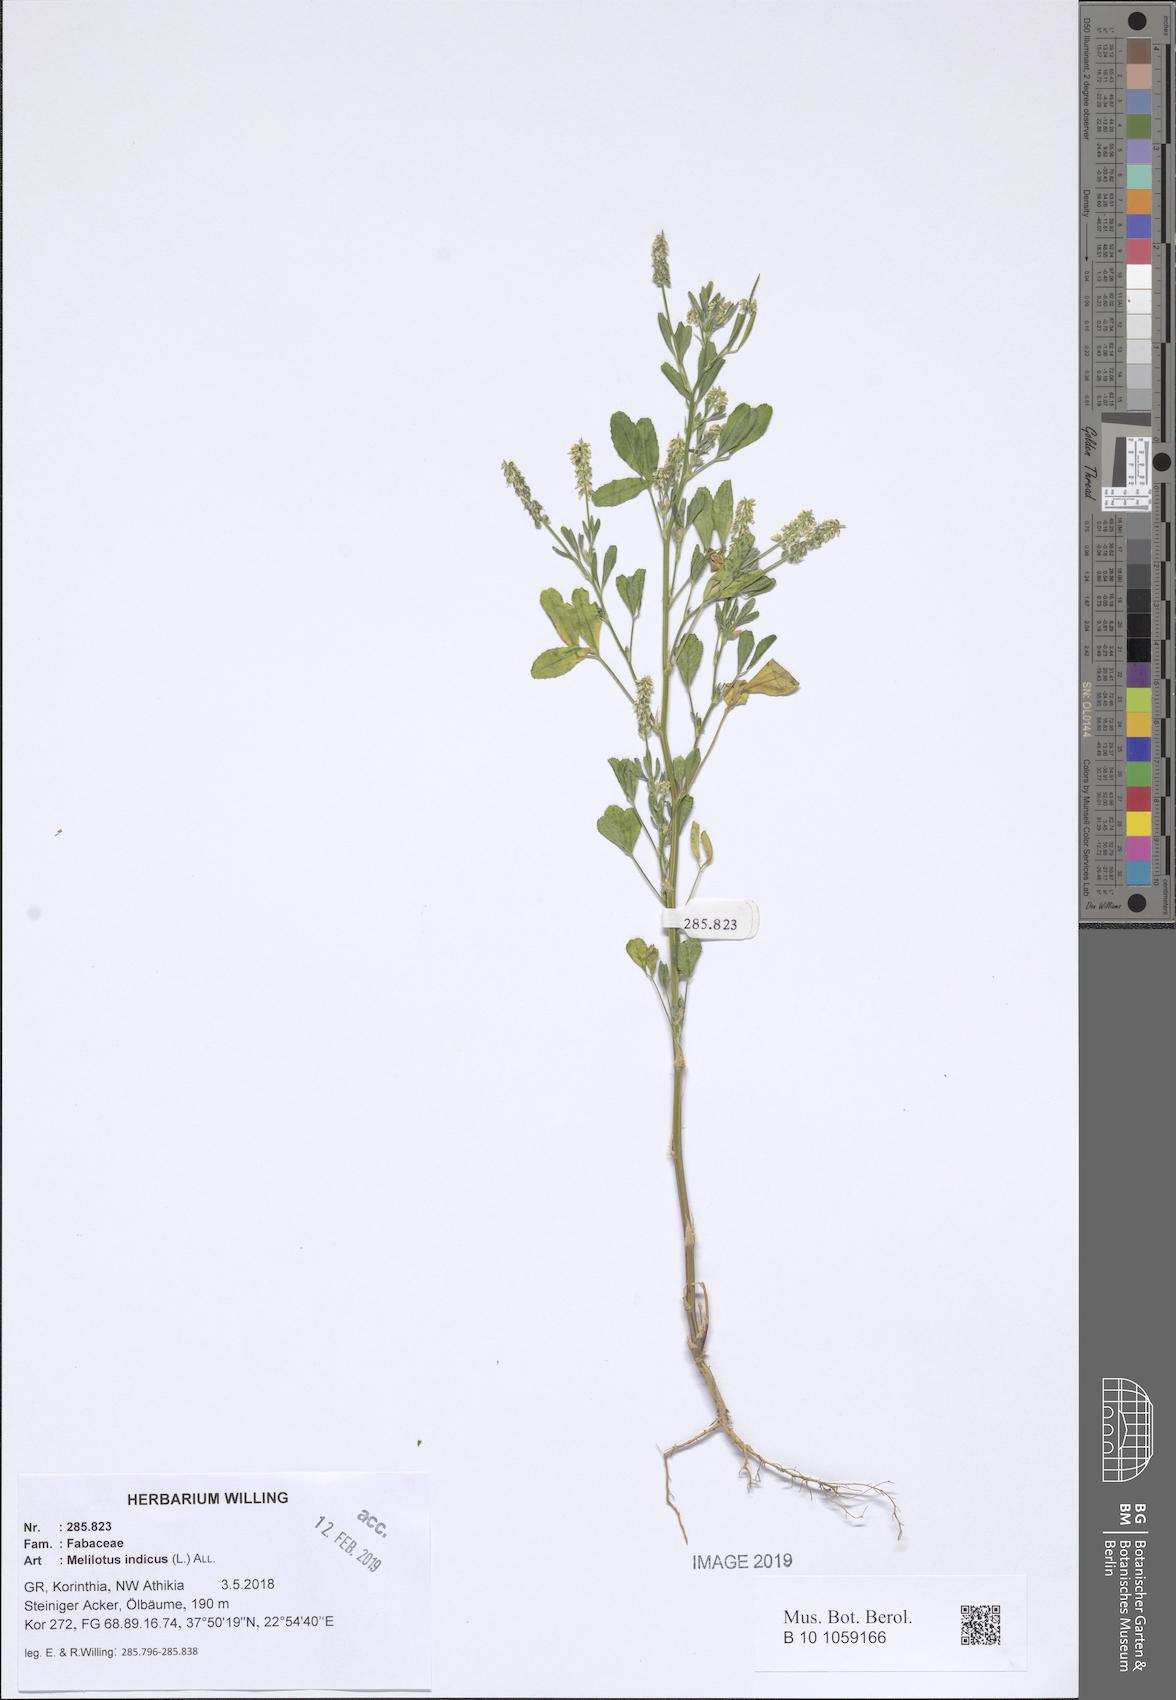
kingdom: Plantae
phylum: Tracheophyta
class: Magnoliopsida
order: Fabales
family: Fabaceae
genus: Melilotus
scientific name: Melilotus indicus
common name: Small melilot
